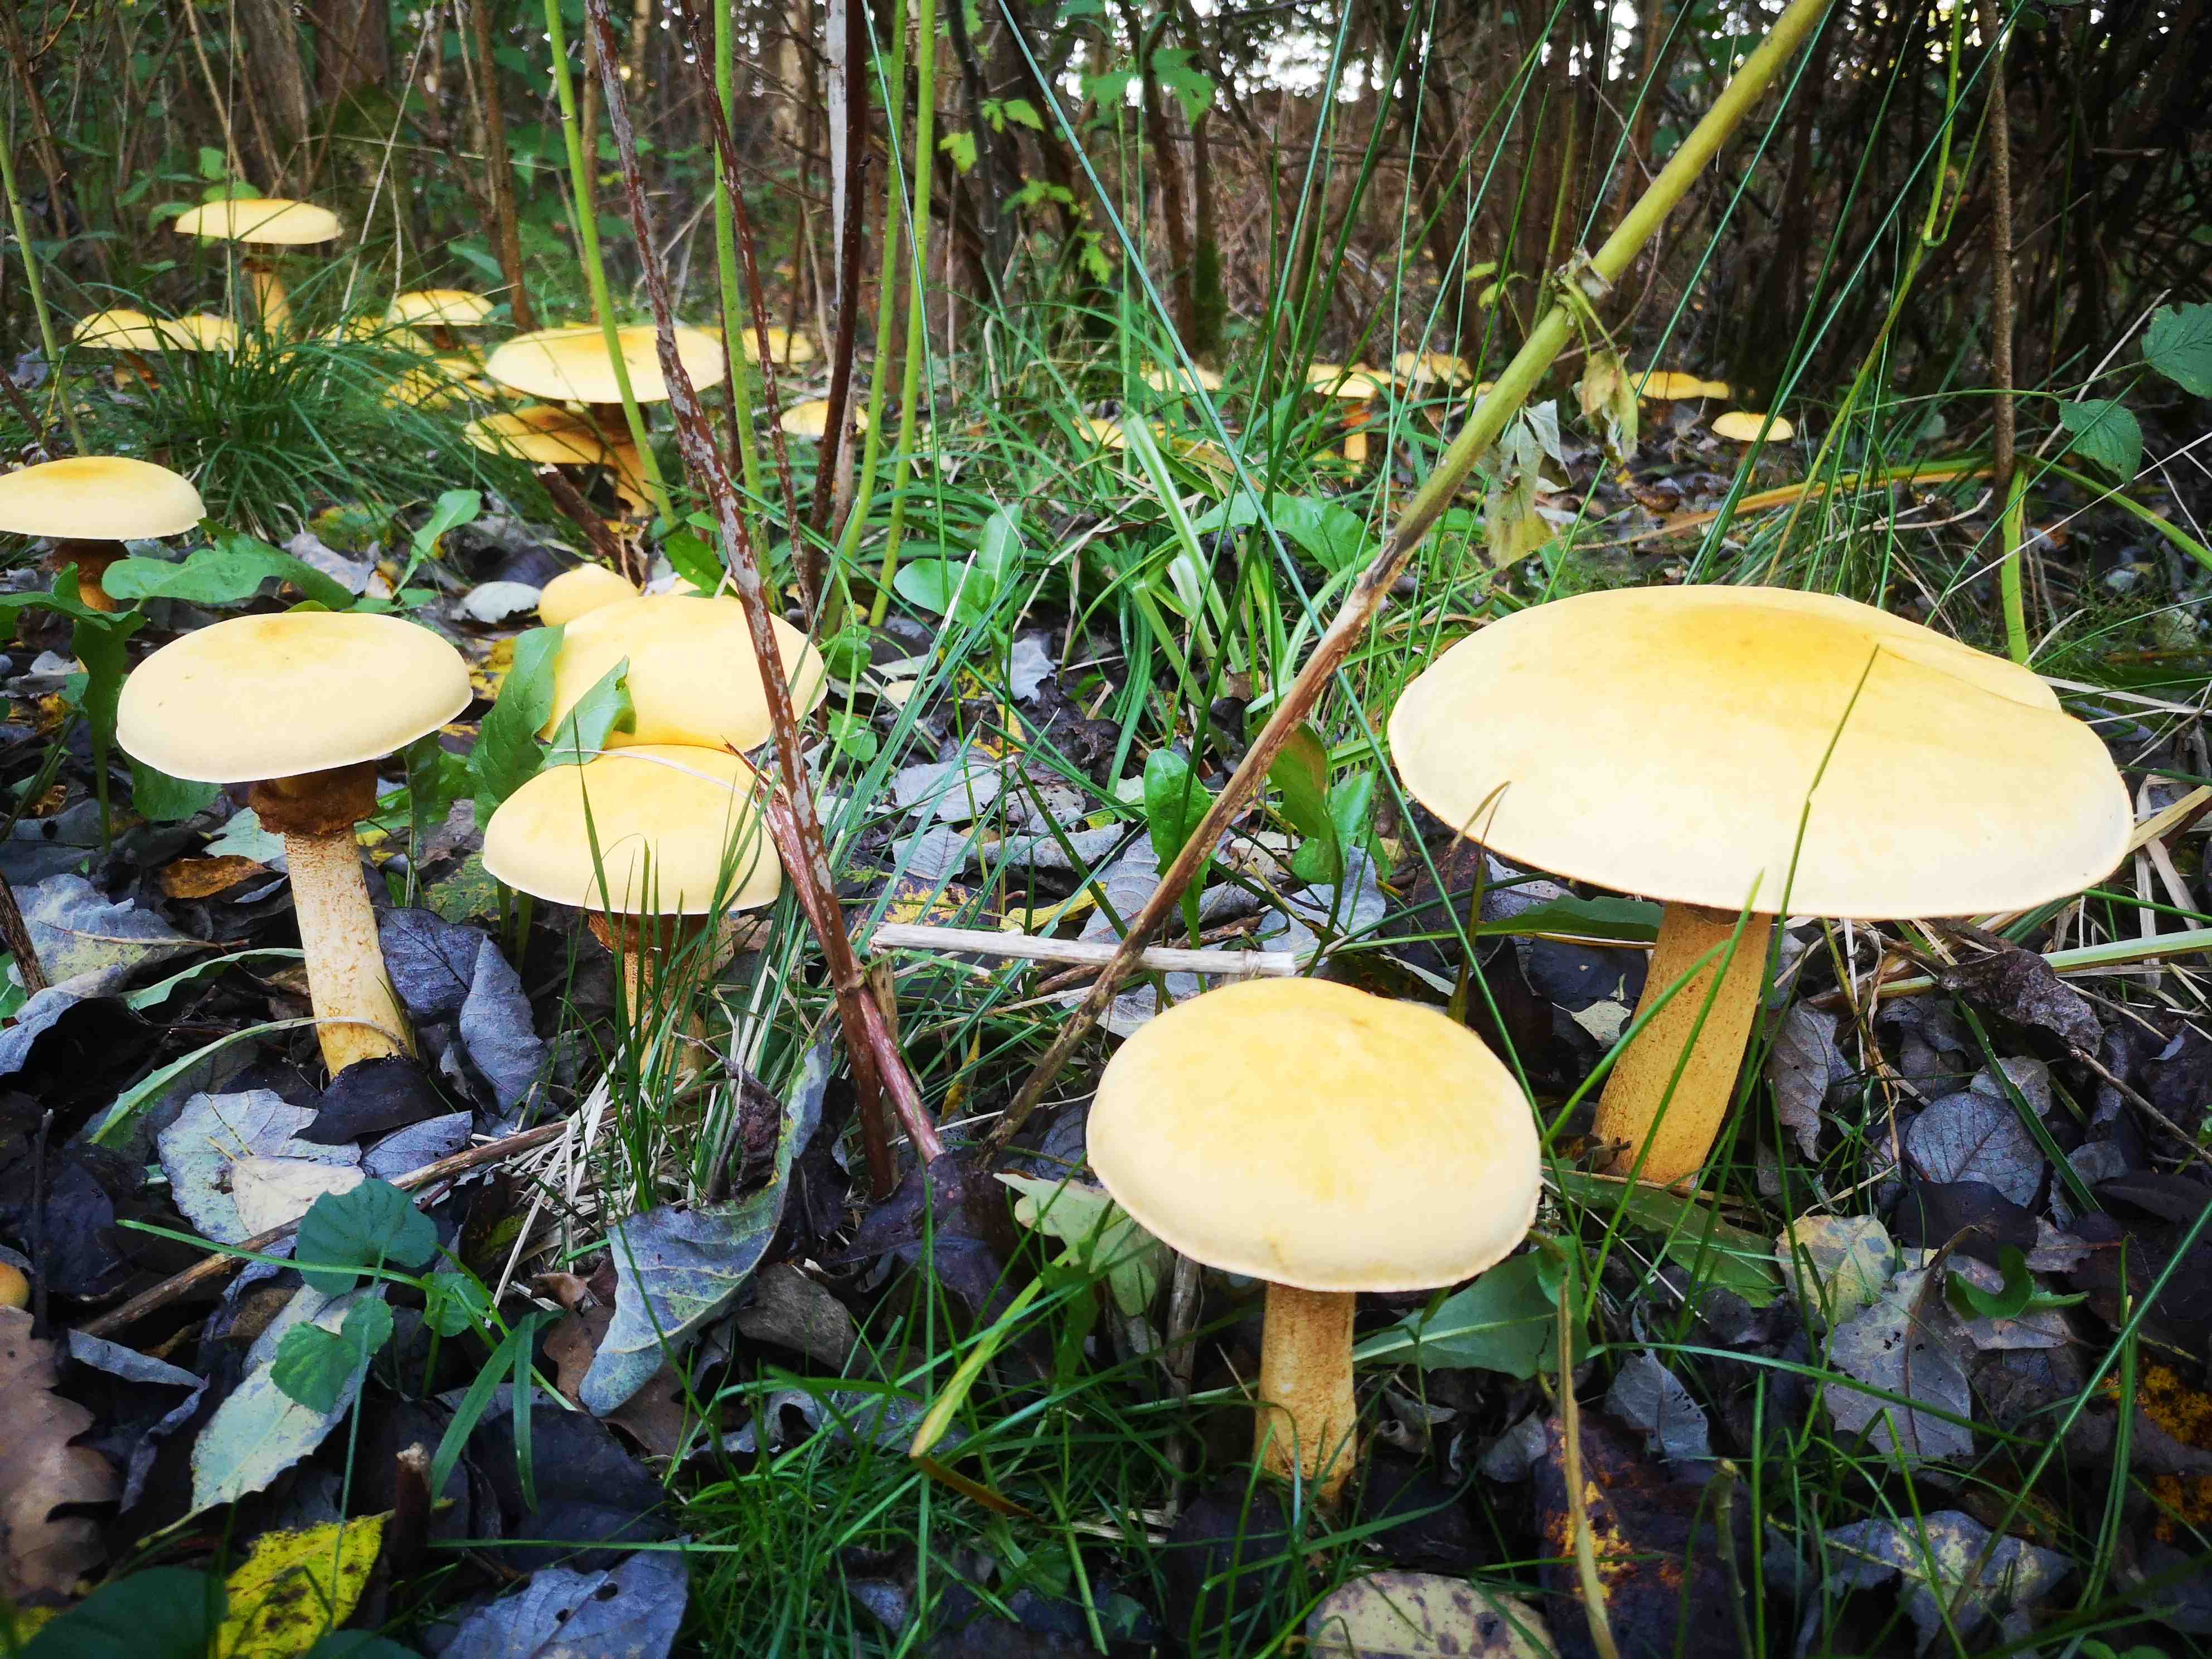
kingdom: Fungi
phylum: Basidiomycota
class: Agaricomycetes
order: Agaricales
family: Tricholomataceae
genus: Phaeolepiota
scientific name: Phaeolepiota aurea
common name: gyldenhat
